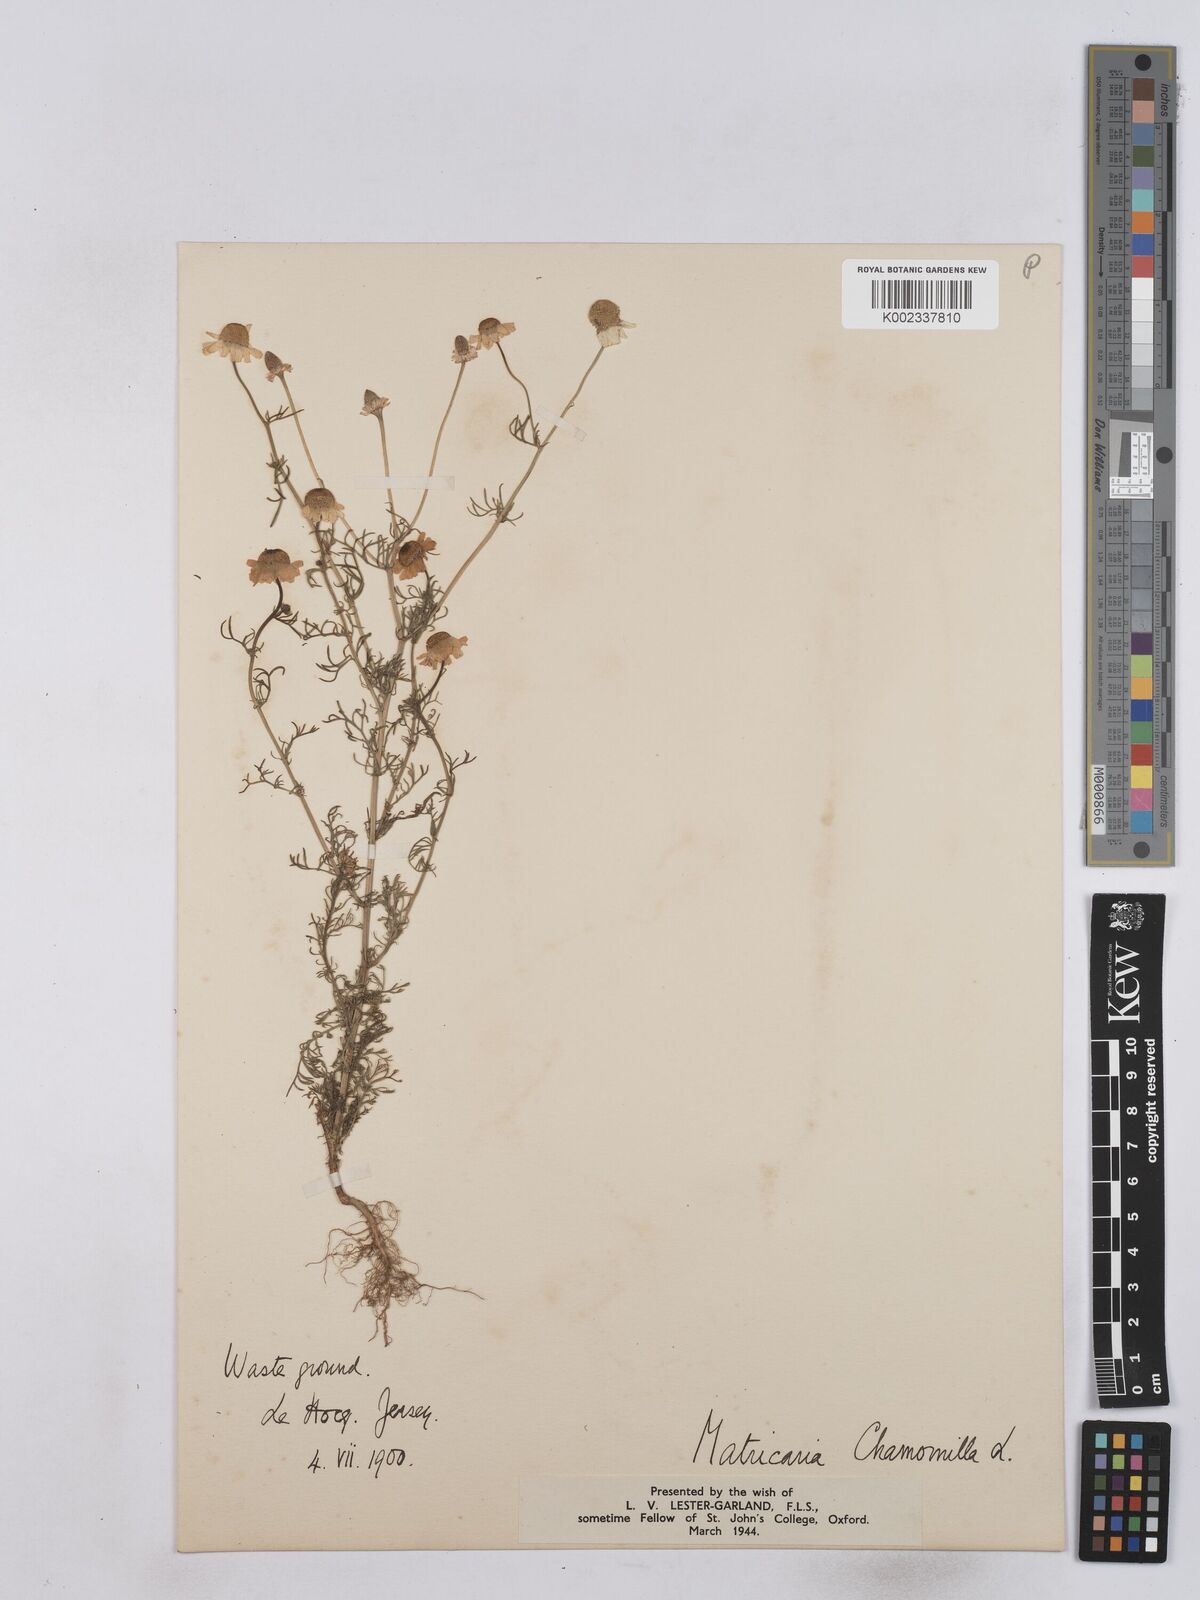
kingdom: Plantae
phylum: Tracheophyta
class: Magnoliopsida
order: Asterales
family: Asteraceae
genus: Matricaria
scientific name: Matricaria chamomilla
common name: Scented mayweed
